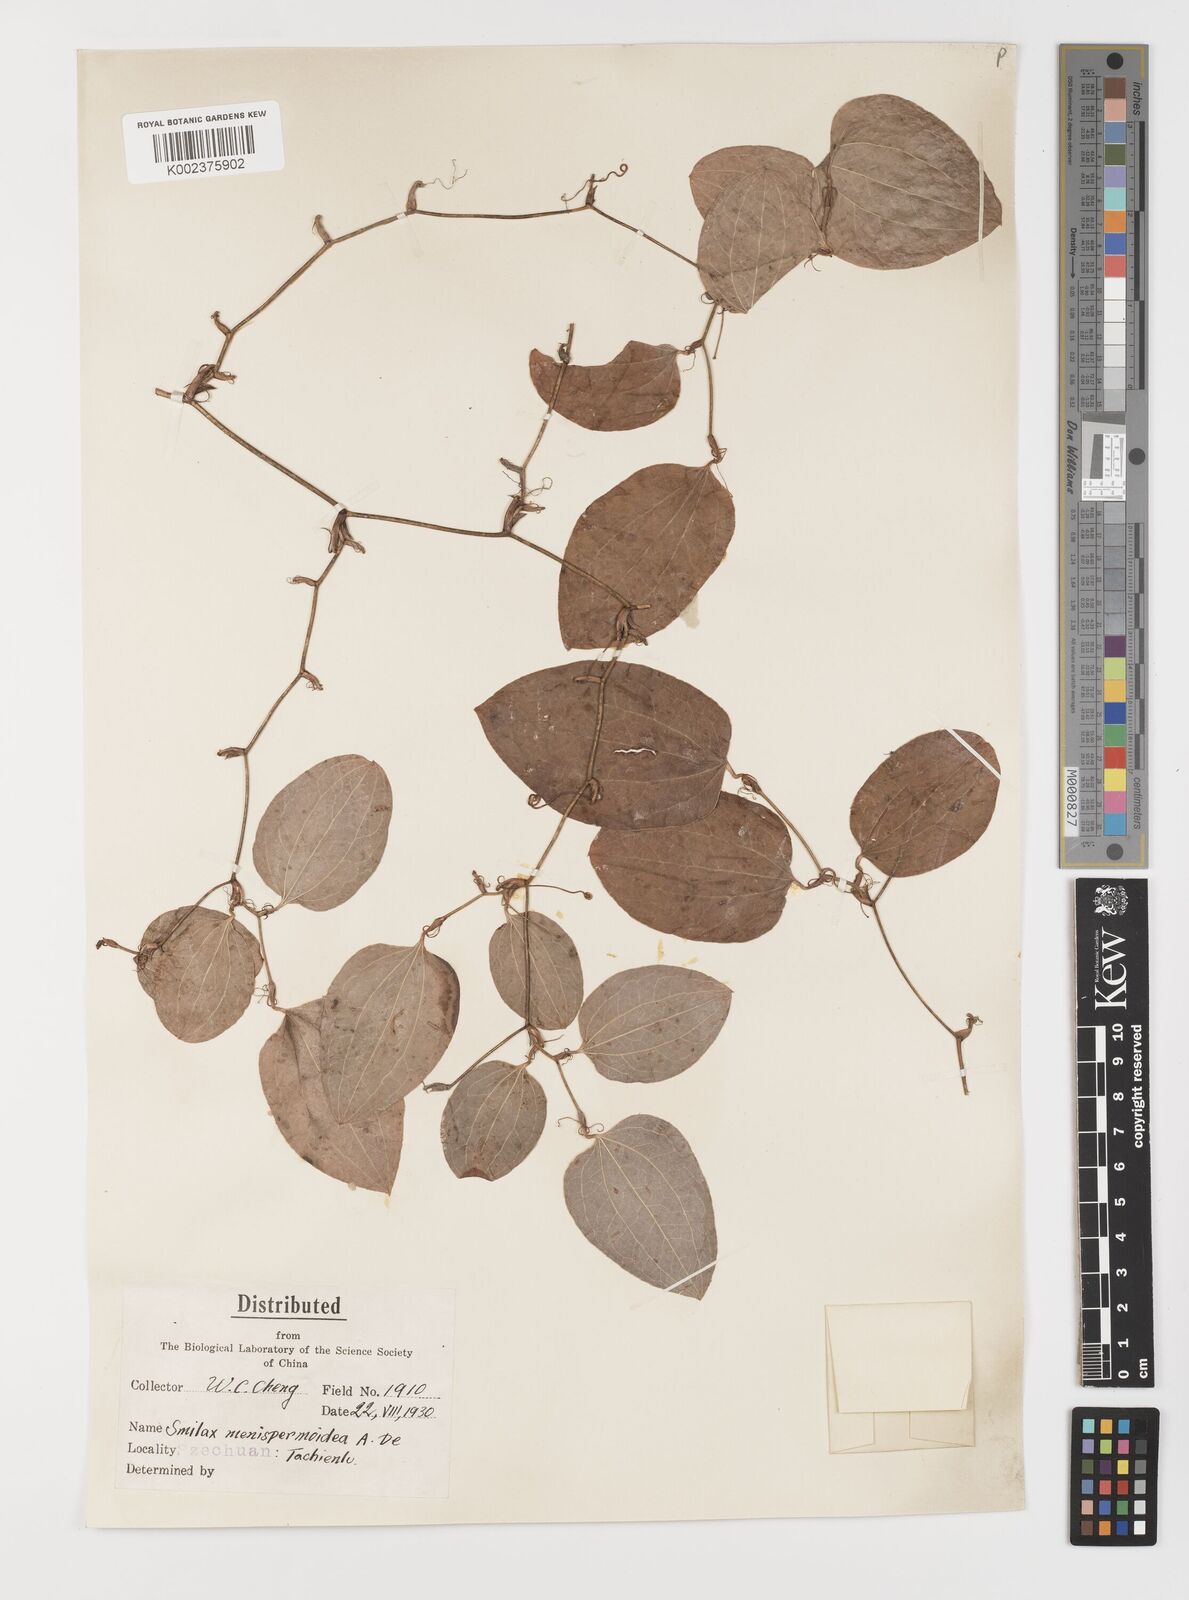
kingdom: Plantae
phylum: Tracheophyta
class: Liliopsida
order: Liliales
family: Smilacaceae
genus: Smilax
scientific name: Smilax menispermoidea
